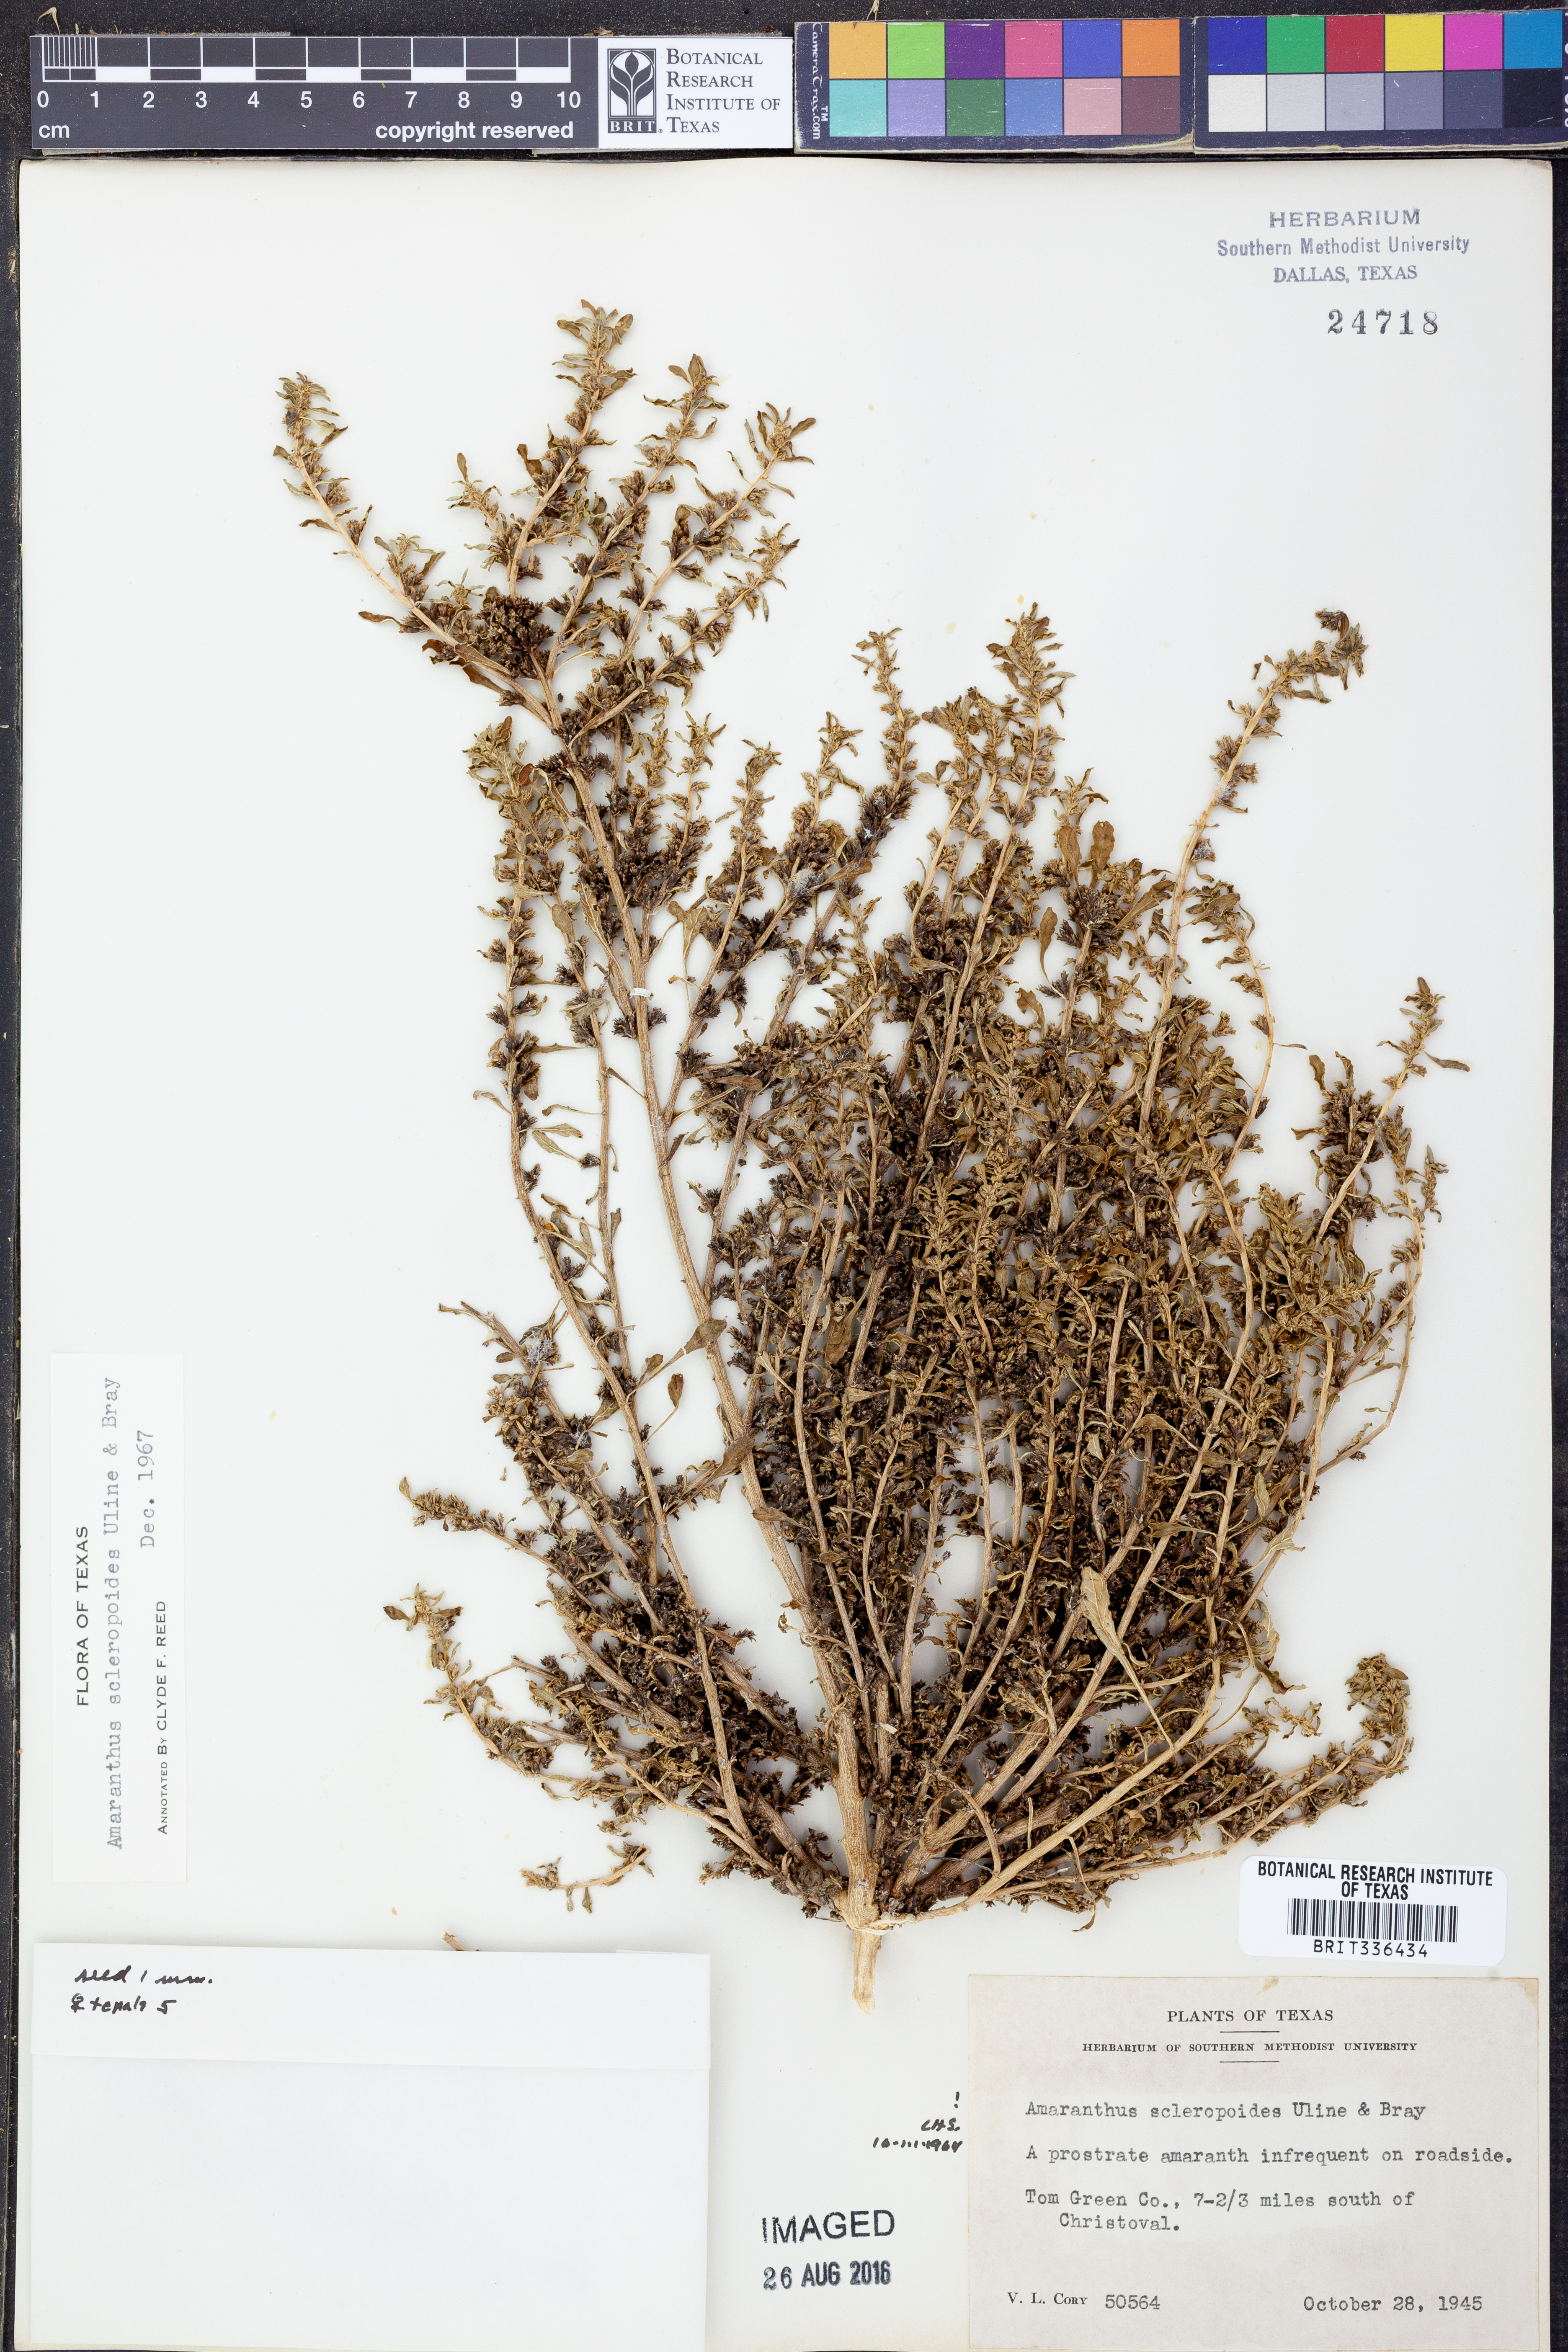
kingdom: Plantae
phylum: Tracheophyta
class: Magnoliopsida
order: Caryophyllales
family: Amaranthaceae
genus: Amaranthus
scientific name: Amaranthus scleropoides
